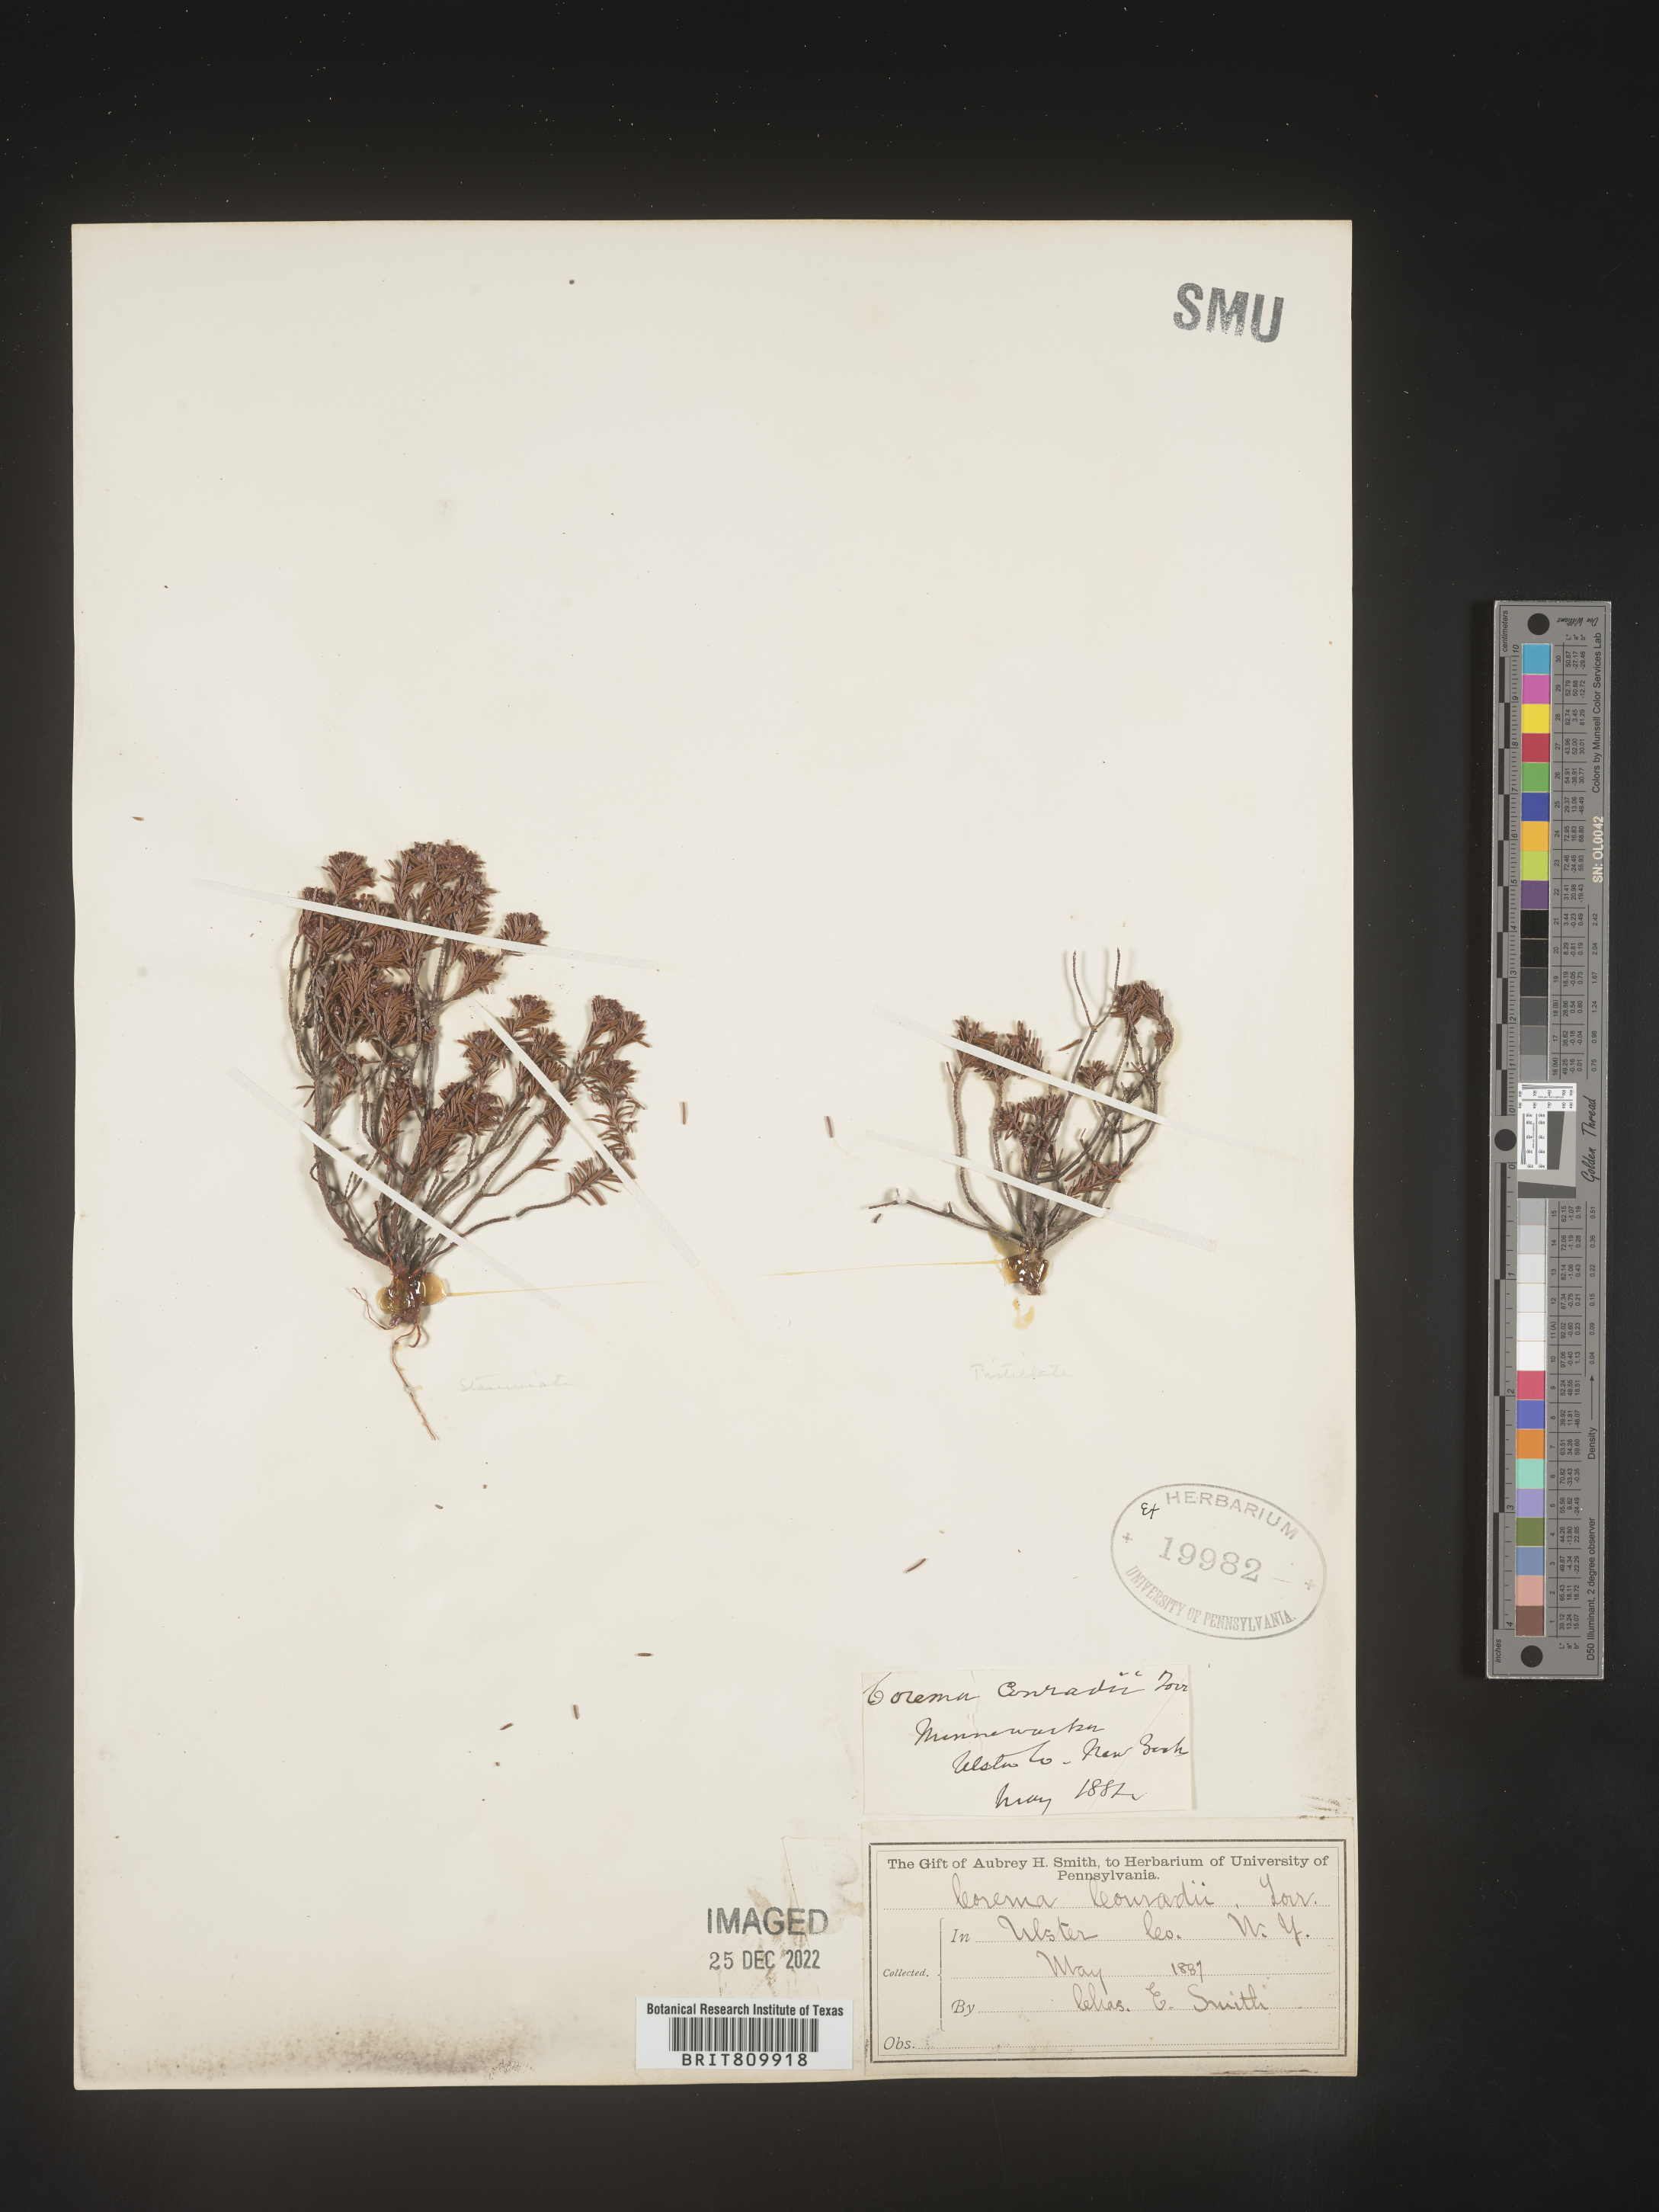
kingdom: Plantae
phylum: Tracheophyta
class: Magnoliopsida
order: Ericales
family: Ericaceae
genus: Corema
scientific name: Corema
